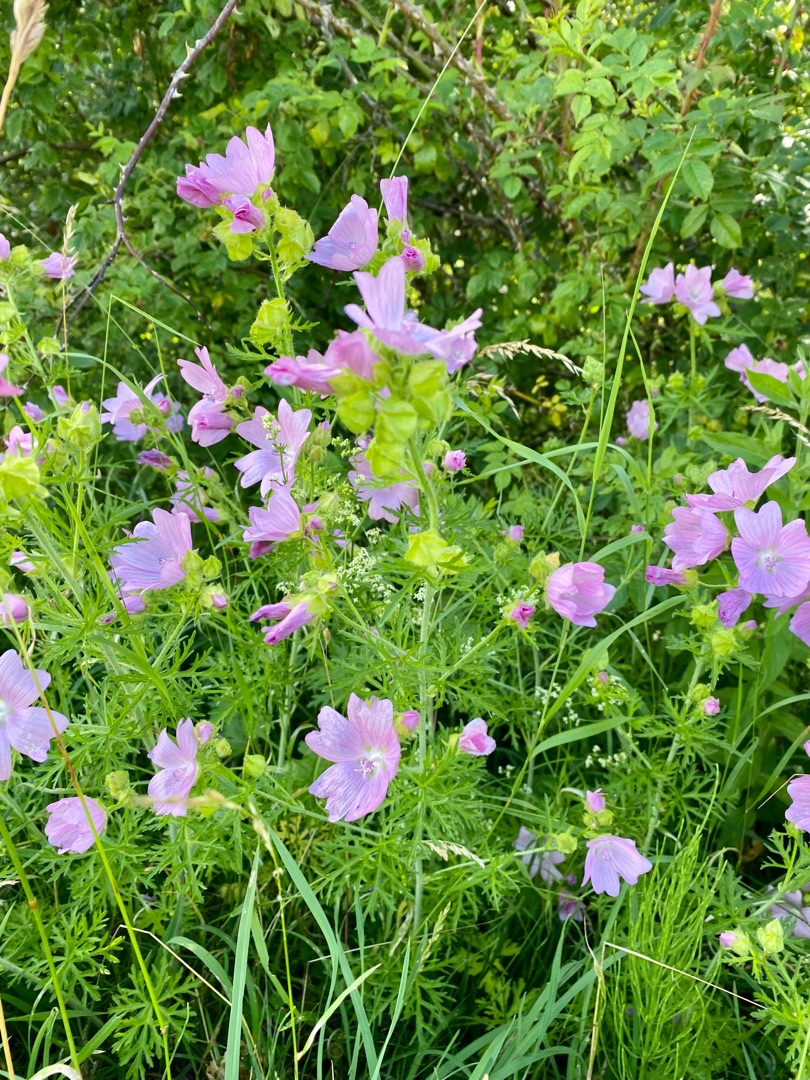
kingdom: Plantae
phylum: Tracheophyta
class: Magnoliopsida
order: Malvales
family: Malvaceae
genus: Malva
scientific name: Malva moschata
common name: Moskus-katost
